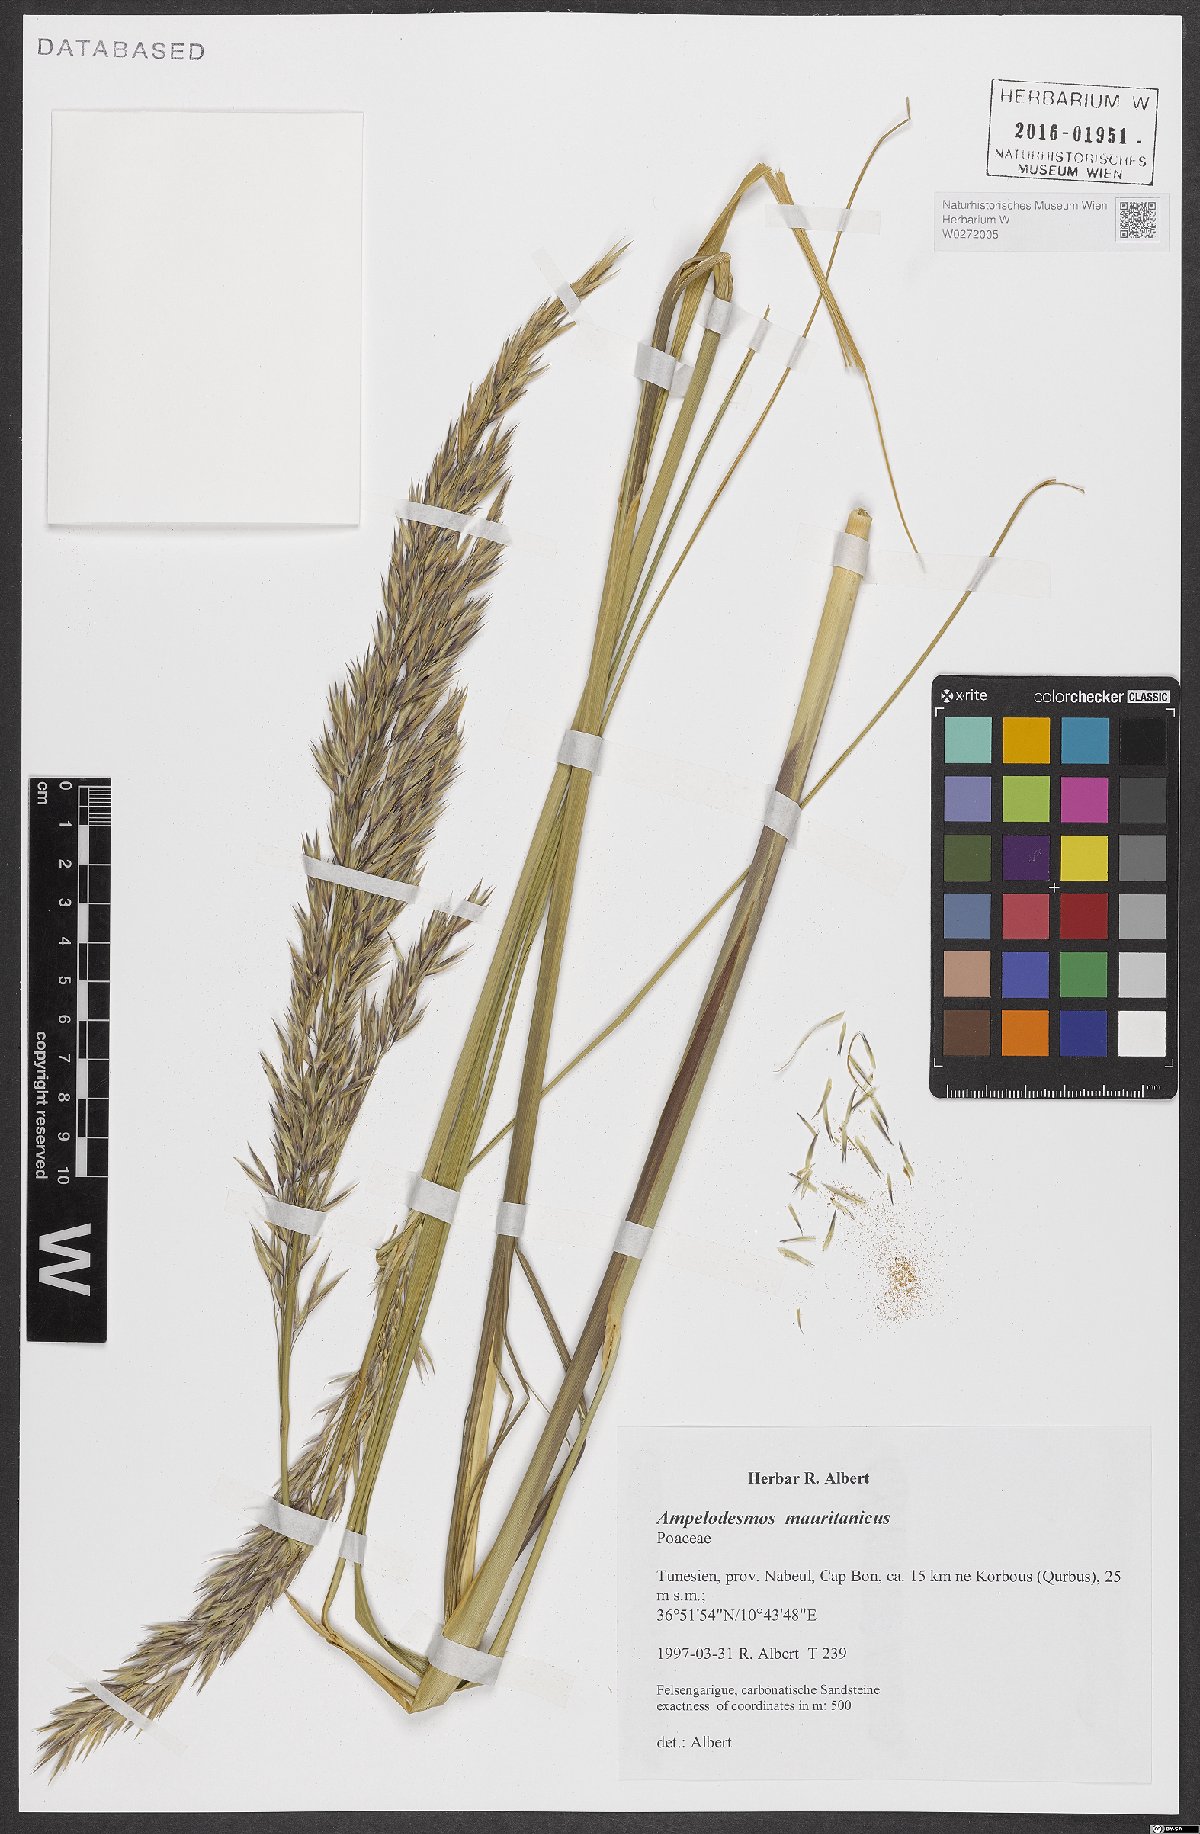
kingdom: Plantae
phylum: Tracheophyta
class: Liliopsida
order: Poales
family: Poaceae
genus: Ampelodesmos
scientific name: Ampelodesmos mauritanicus
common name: Mauritanian grass
